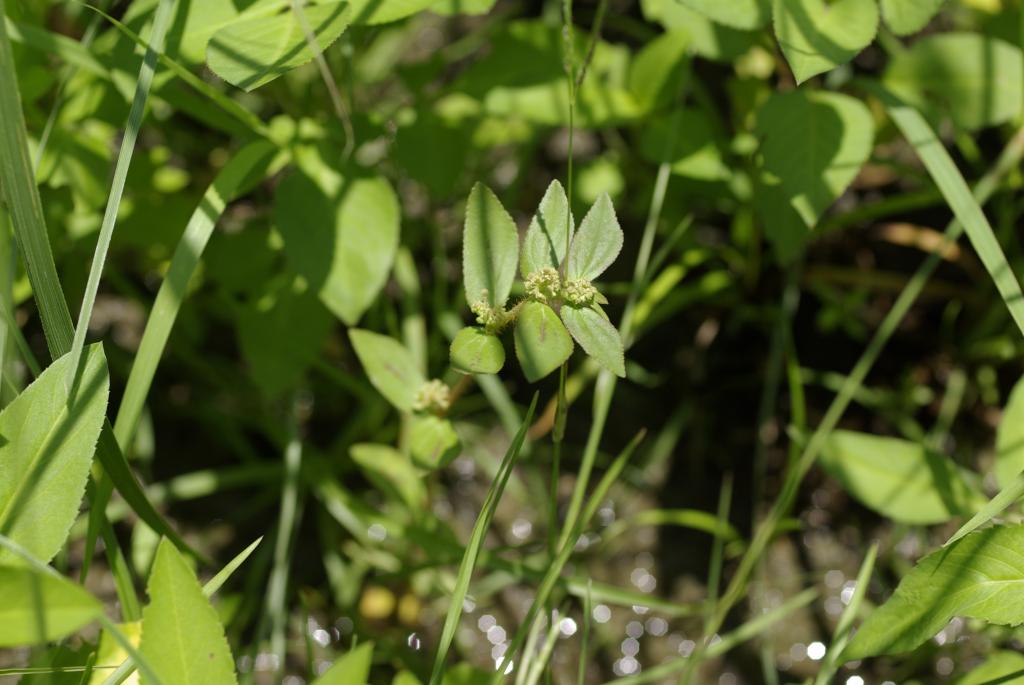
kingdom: Plantae
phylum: Tracheophyta
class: Magnoliopsida
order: Malpighiales
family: Euphorbiaceae
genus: Euphorbia
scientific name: Euphorbia hirta
